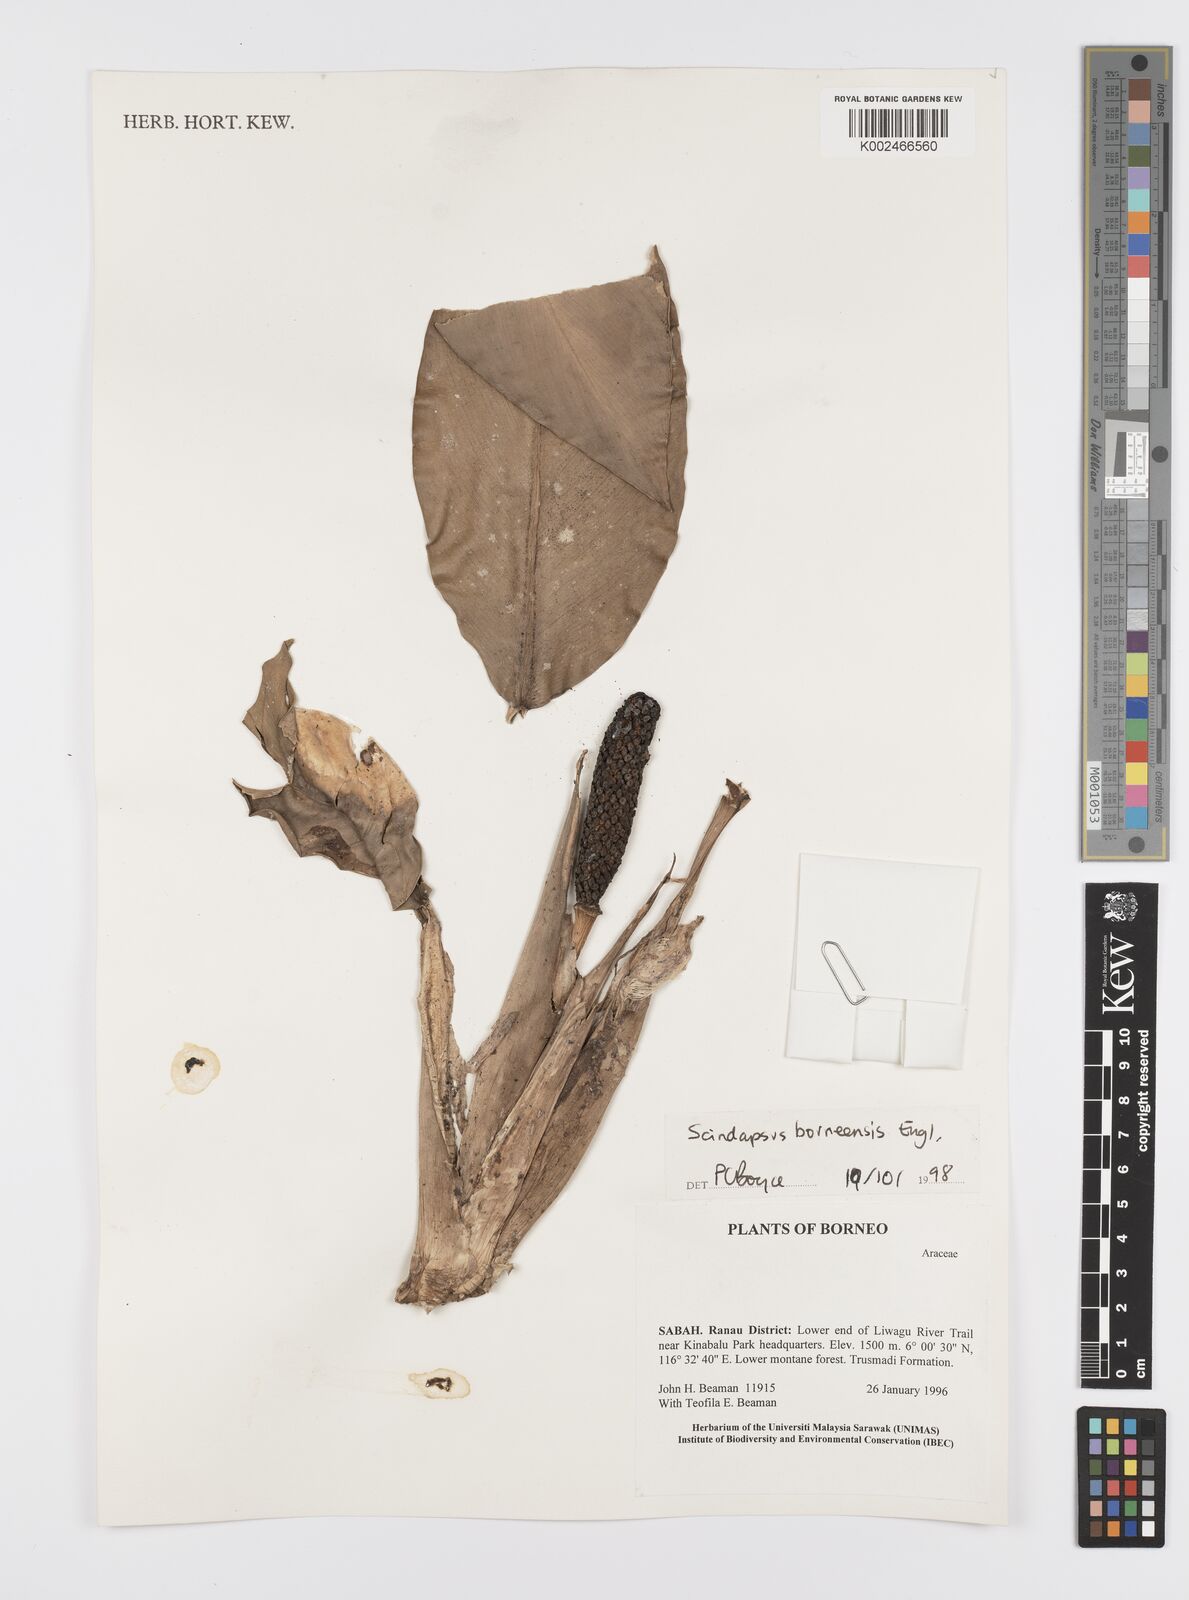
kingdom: Plantae
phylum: Tracheophyta
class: Liliopsida
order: Alismatales
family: Araceae
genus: Scindapsus
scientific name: Scindapsus coriaceus
